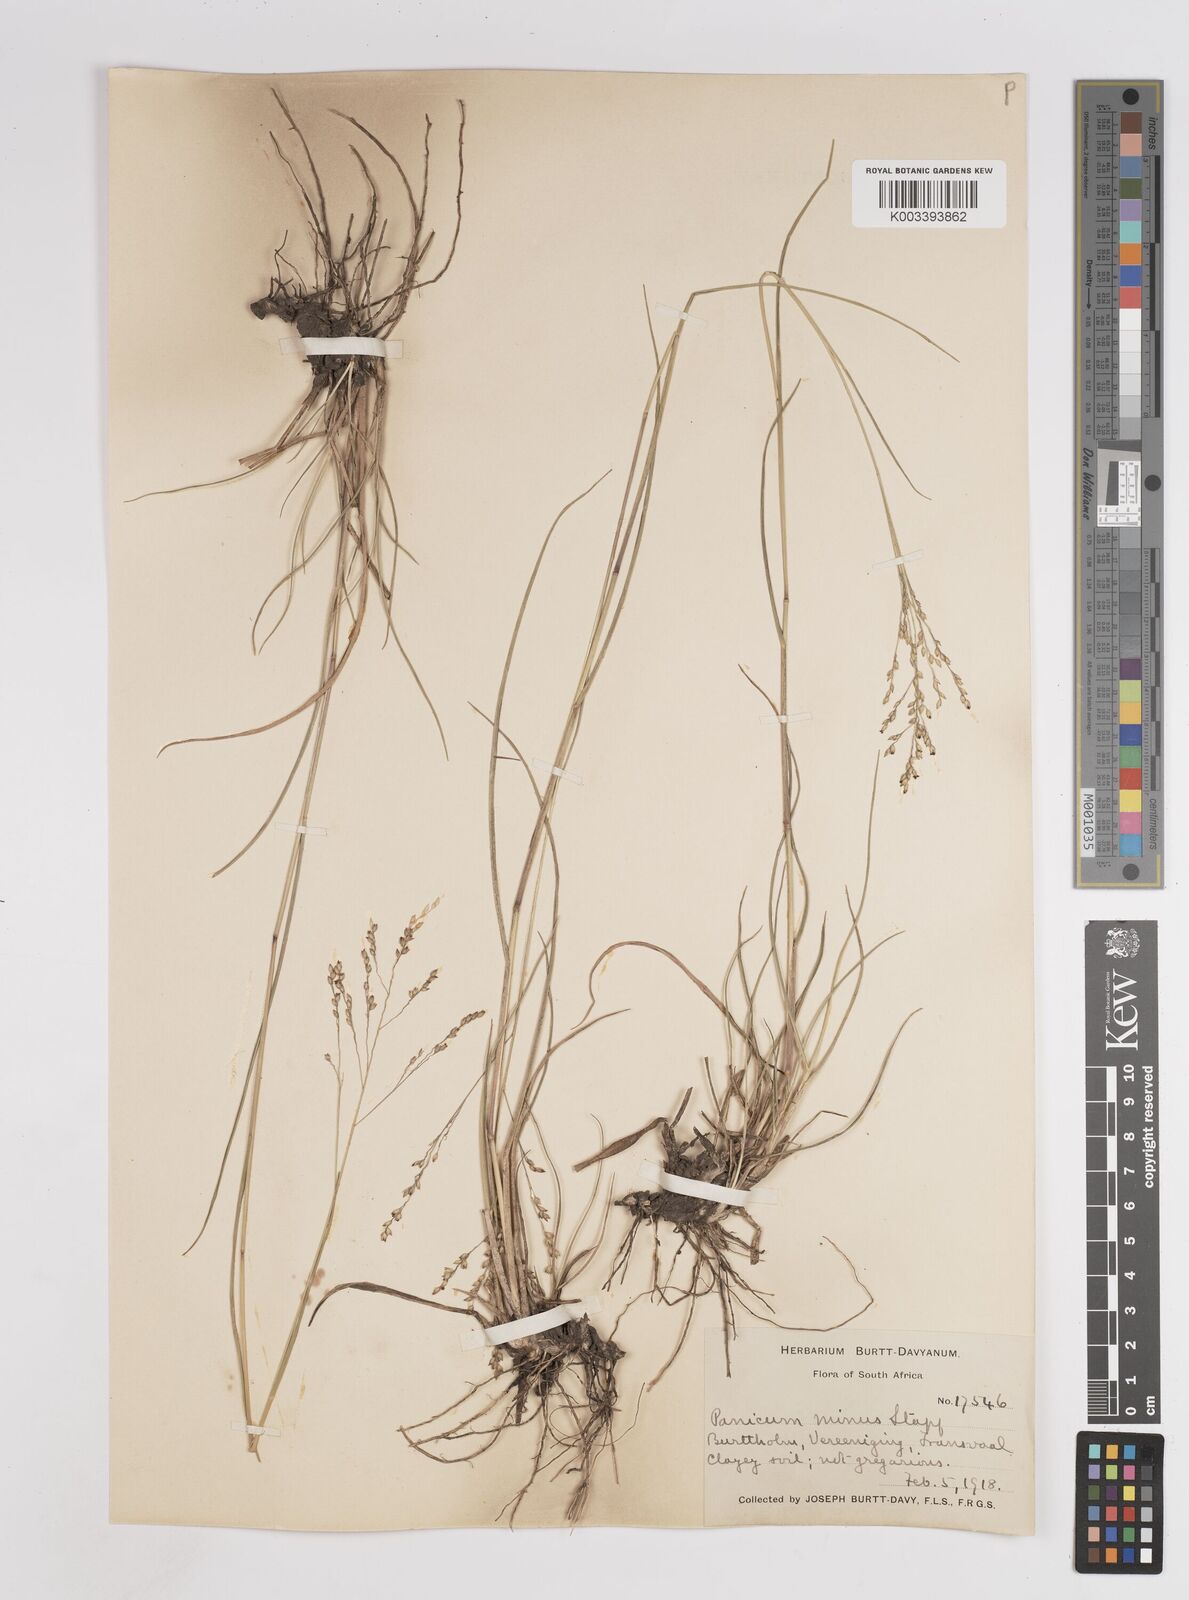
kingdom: Plantae
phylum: Tracheophyta
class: Liliopsida
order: Poales
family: Poaceae
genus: Panicum
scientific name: Panicum stapfianum
